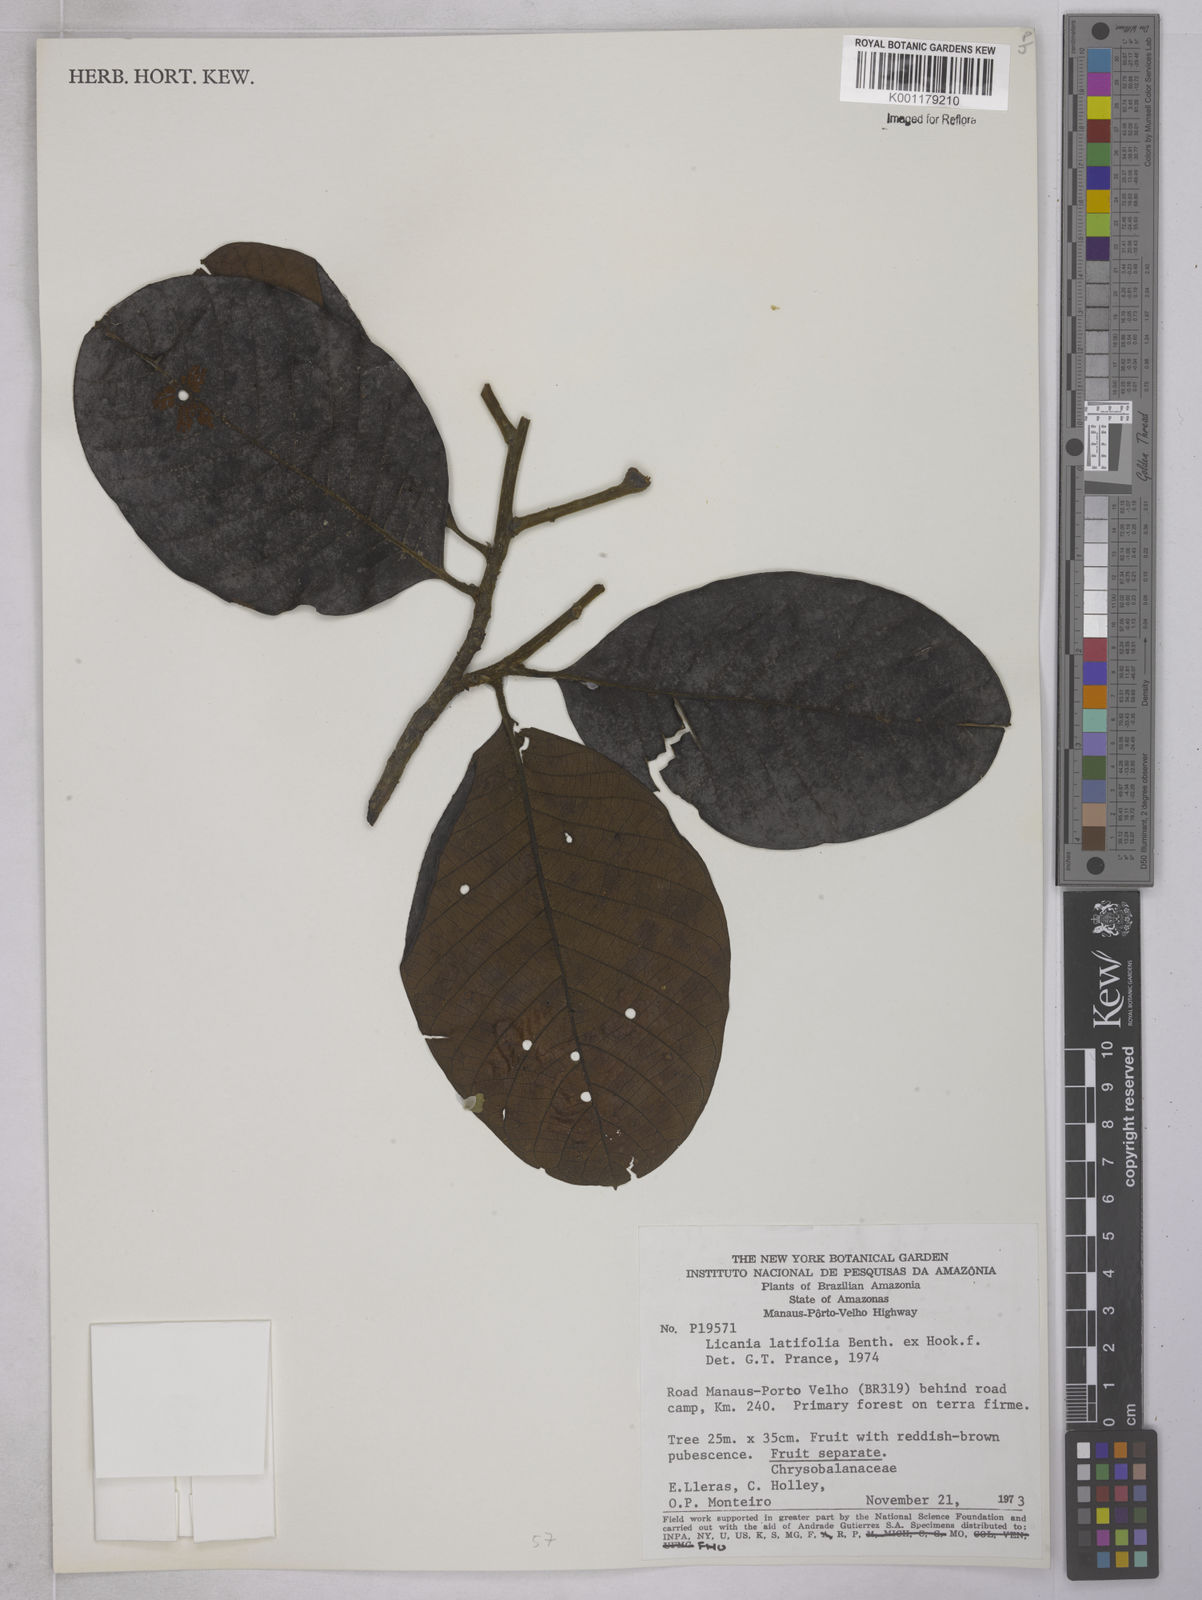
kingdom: Plantae
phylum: Tracheophyta
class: Magnoliopsida
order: Malpighiales
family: Chrysobalanaceae
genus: Hymenopus
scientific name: Hymenopus latifolius
